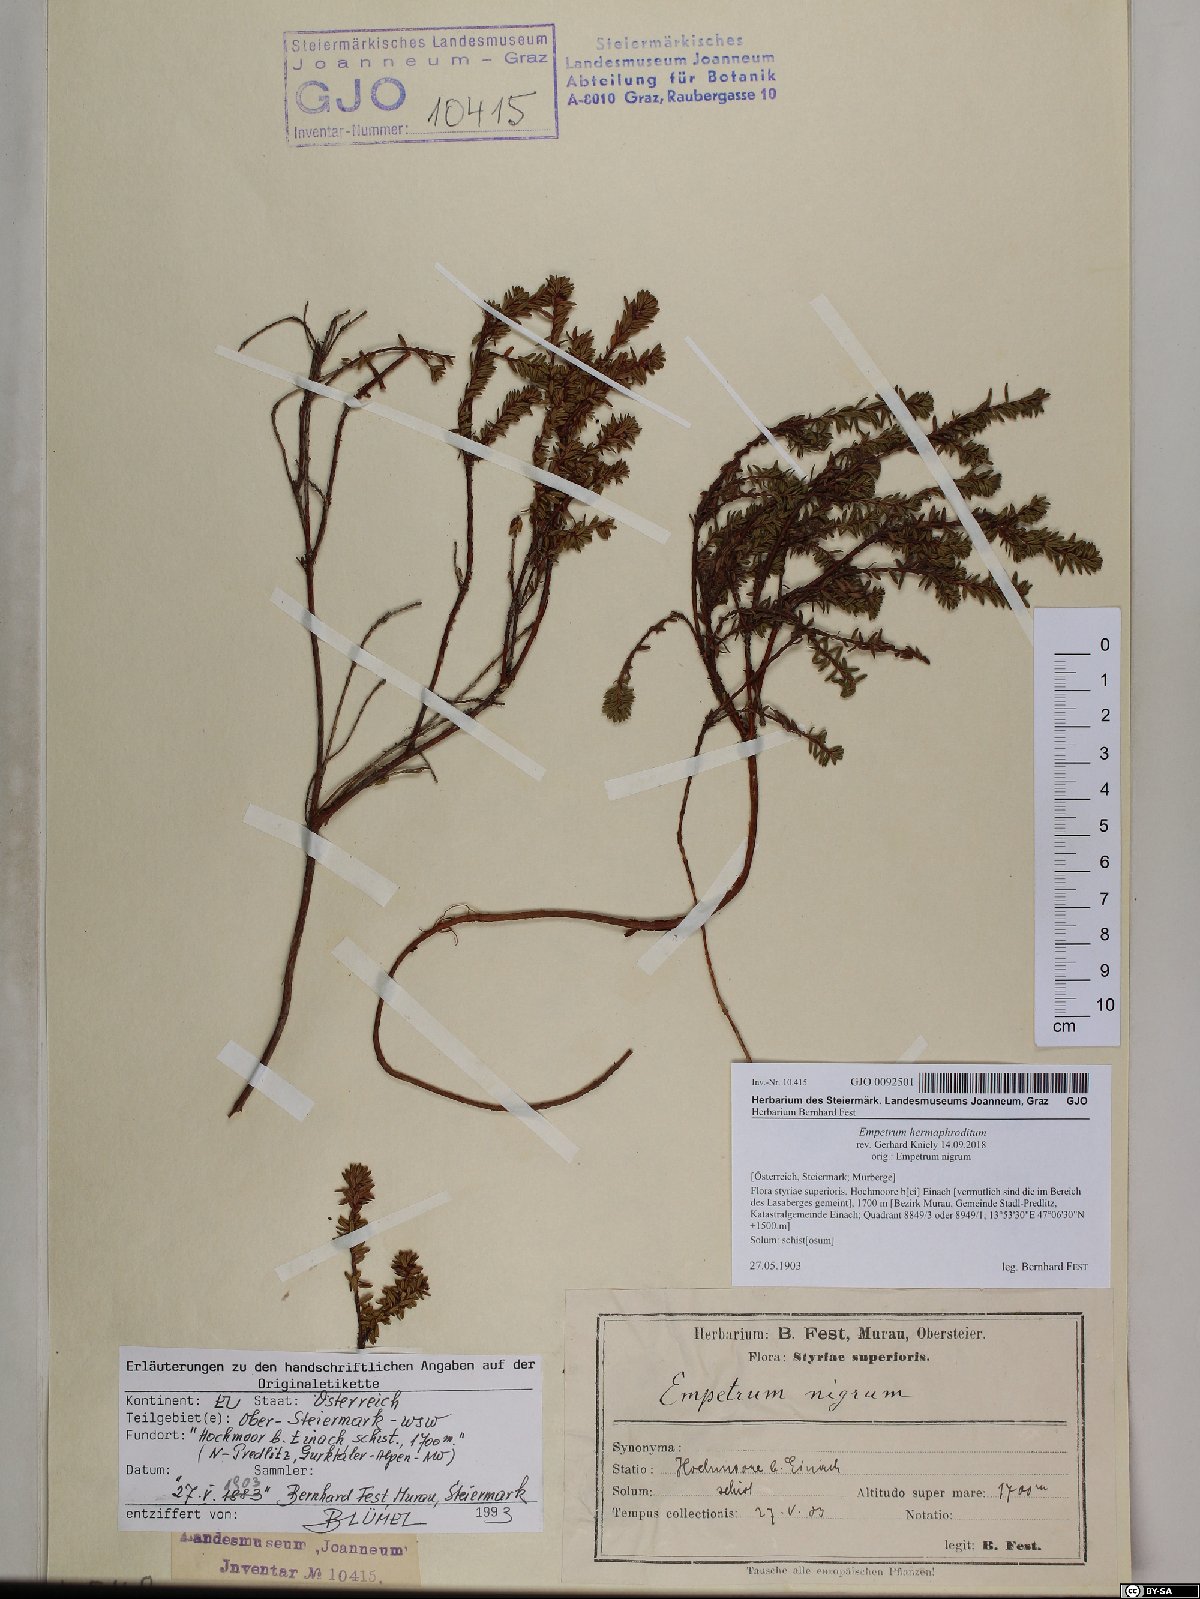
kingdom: Plantae
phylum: Tracheophyta
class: Magnoliopsida
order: Ericales
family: Ericaceae
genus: Empetrum
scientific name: Empetrum hermaphroditum
